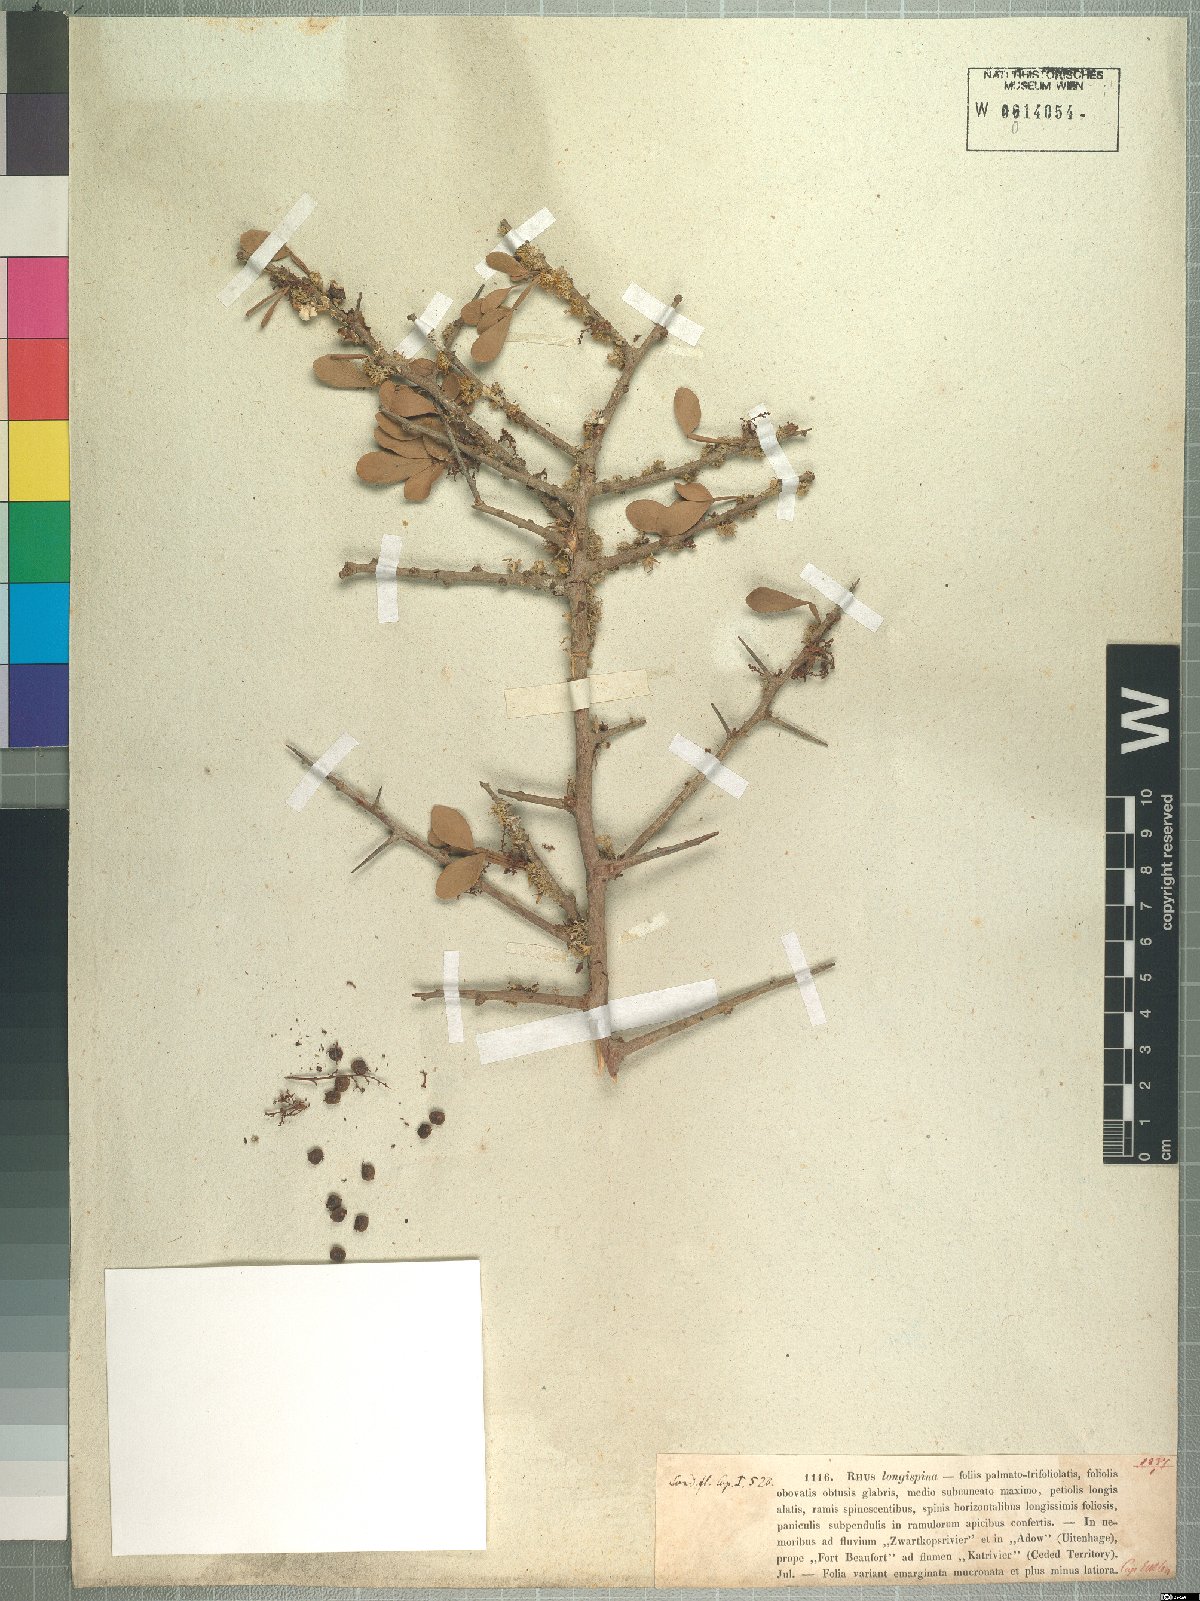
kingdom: Plantae
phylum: Tracheophyta
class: Magnoliopsida
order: Sapindales
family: Anacardiaceae
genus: Searsia
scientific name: Searsia longispina
